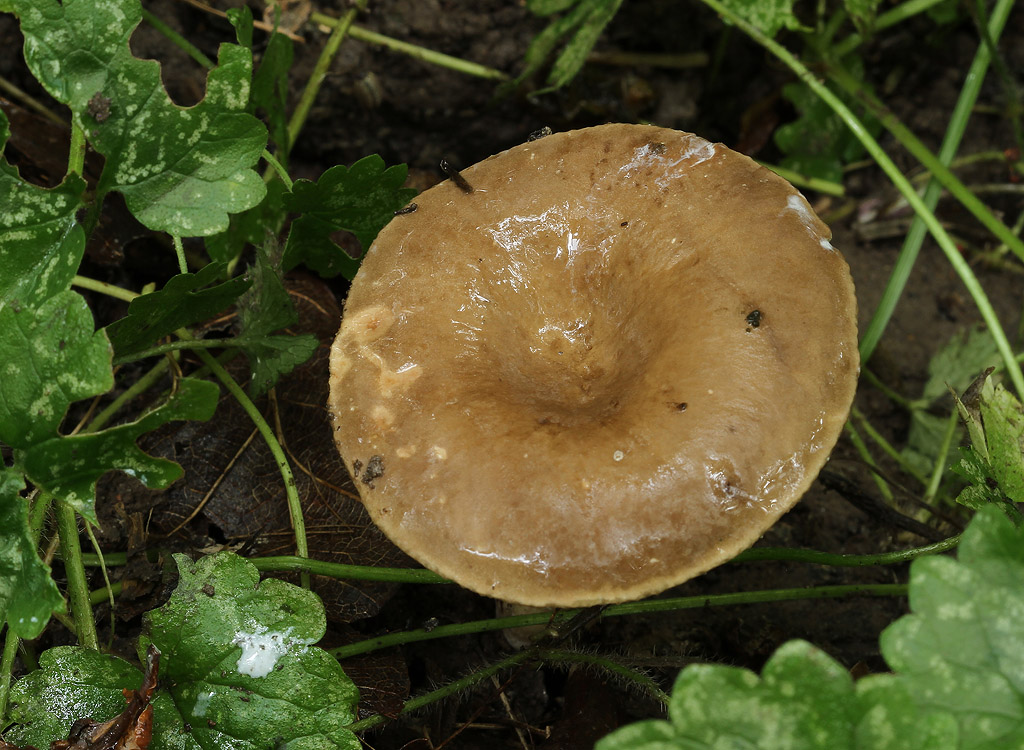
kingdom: Fungi
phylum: Basidiomycota
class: Agaricomycetes
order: Russulales
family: Russulaceae
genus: Lactarius
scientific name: Lactarius pterosporus
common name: vingesporet mælkehat
